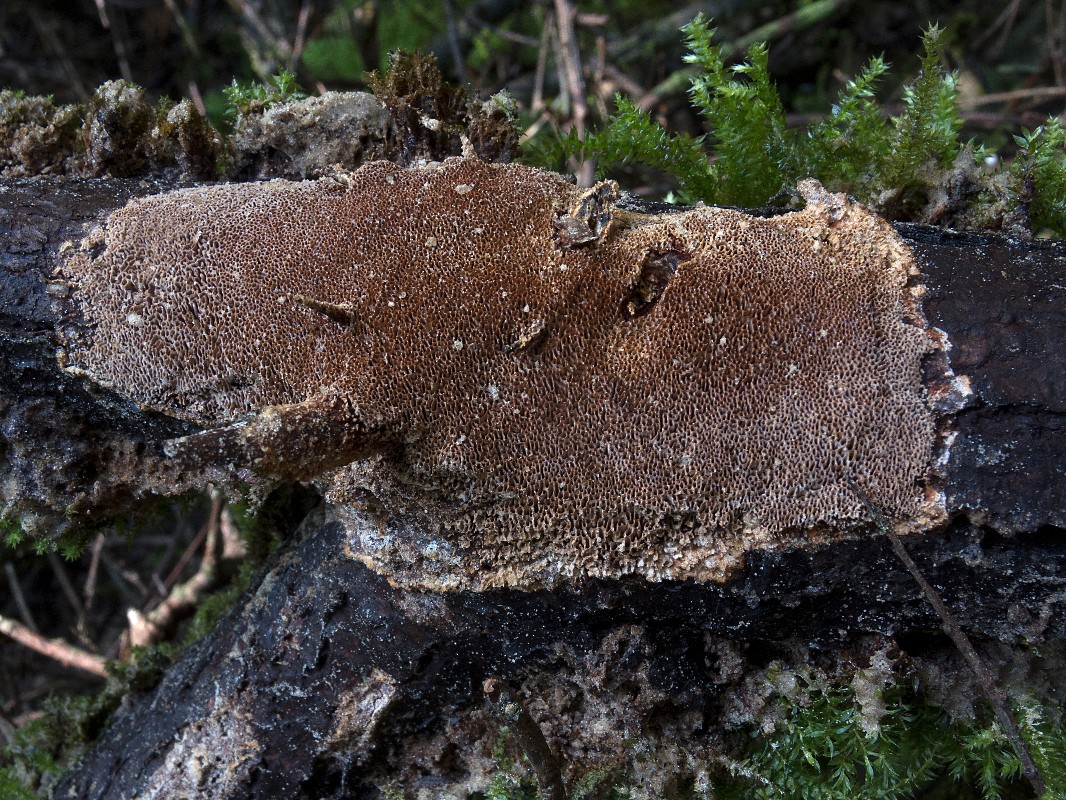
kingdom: Fungi
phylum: Basidiomycota
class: Agaricomycetes
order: Hymenochaetales
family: Hymenochaetaceae
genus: Fuscoporia
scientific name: Fuscoporia contigua
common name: grov ildporesvamp
